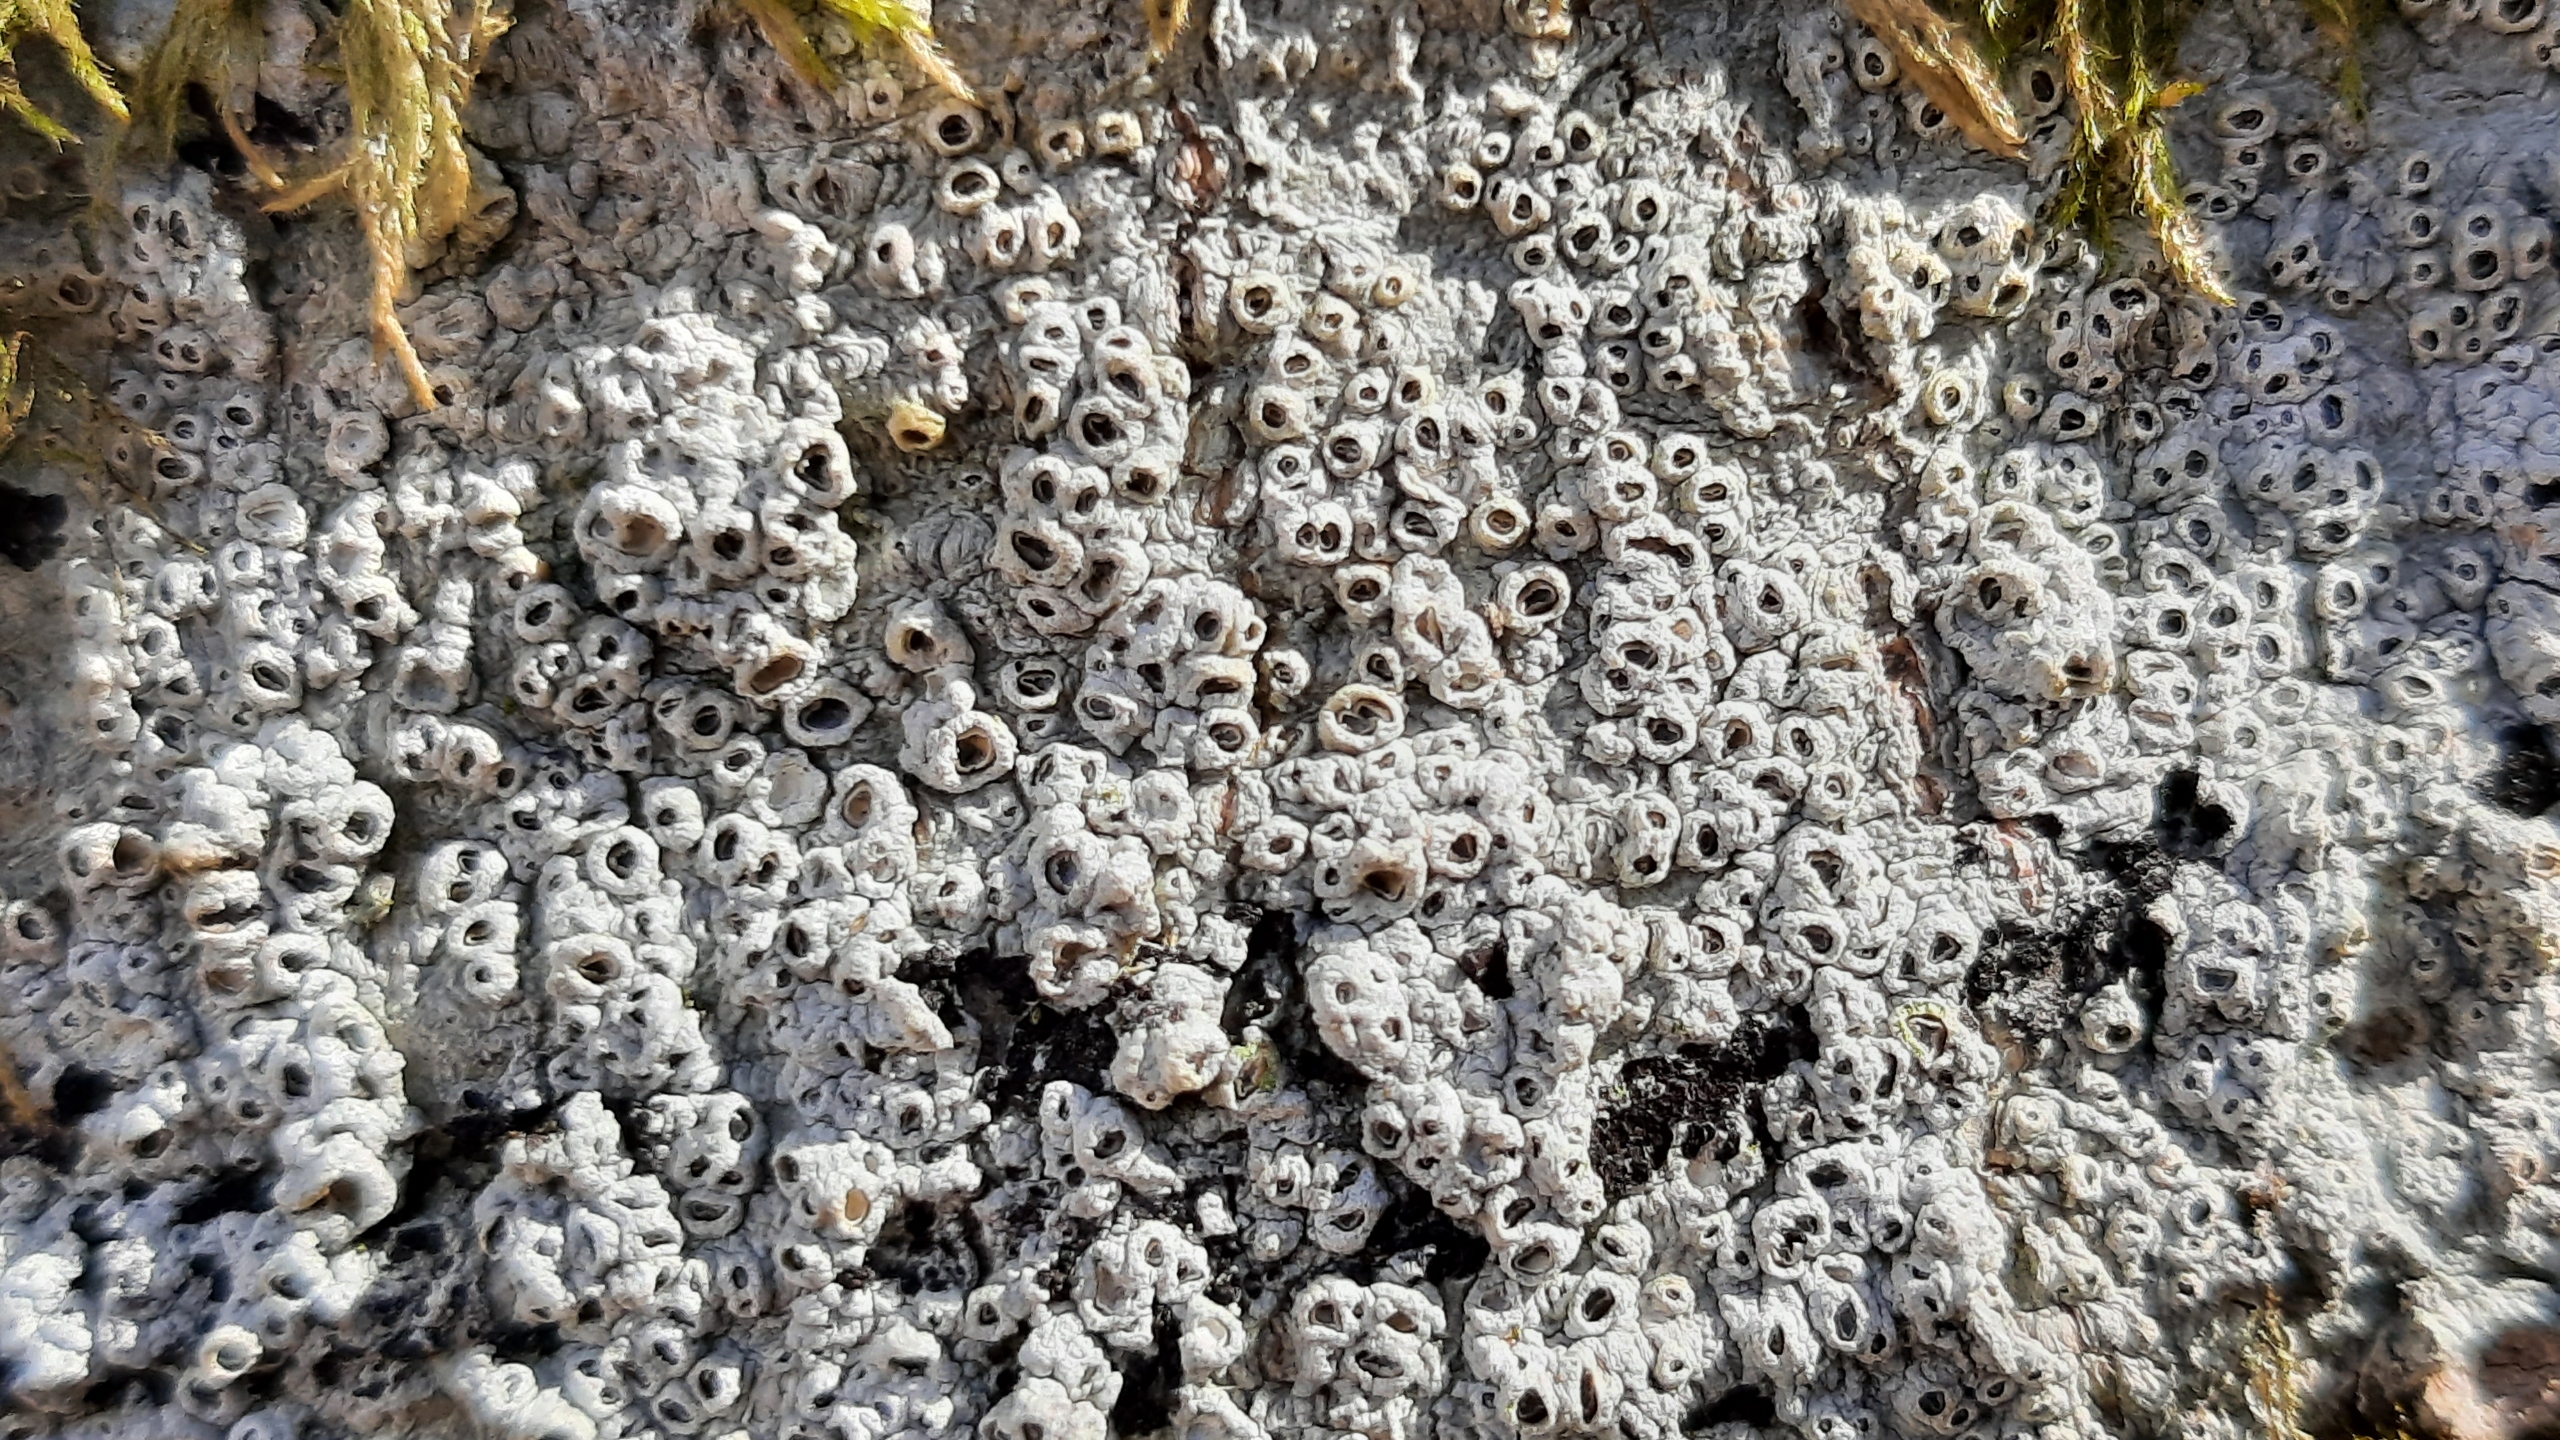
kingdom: Fungi
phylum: Ascomycota
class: Lecanoromycetes
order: Ostropales
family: Graphidaceae
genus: Thelotrema
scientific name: Thelotrema lepadinum
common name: Almindelig slørkantlav
